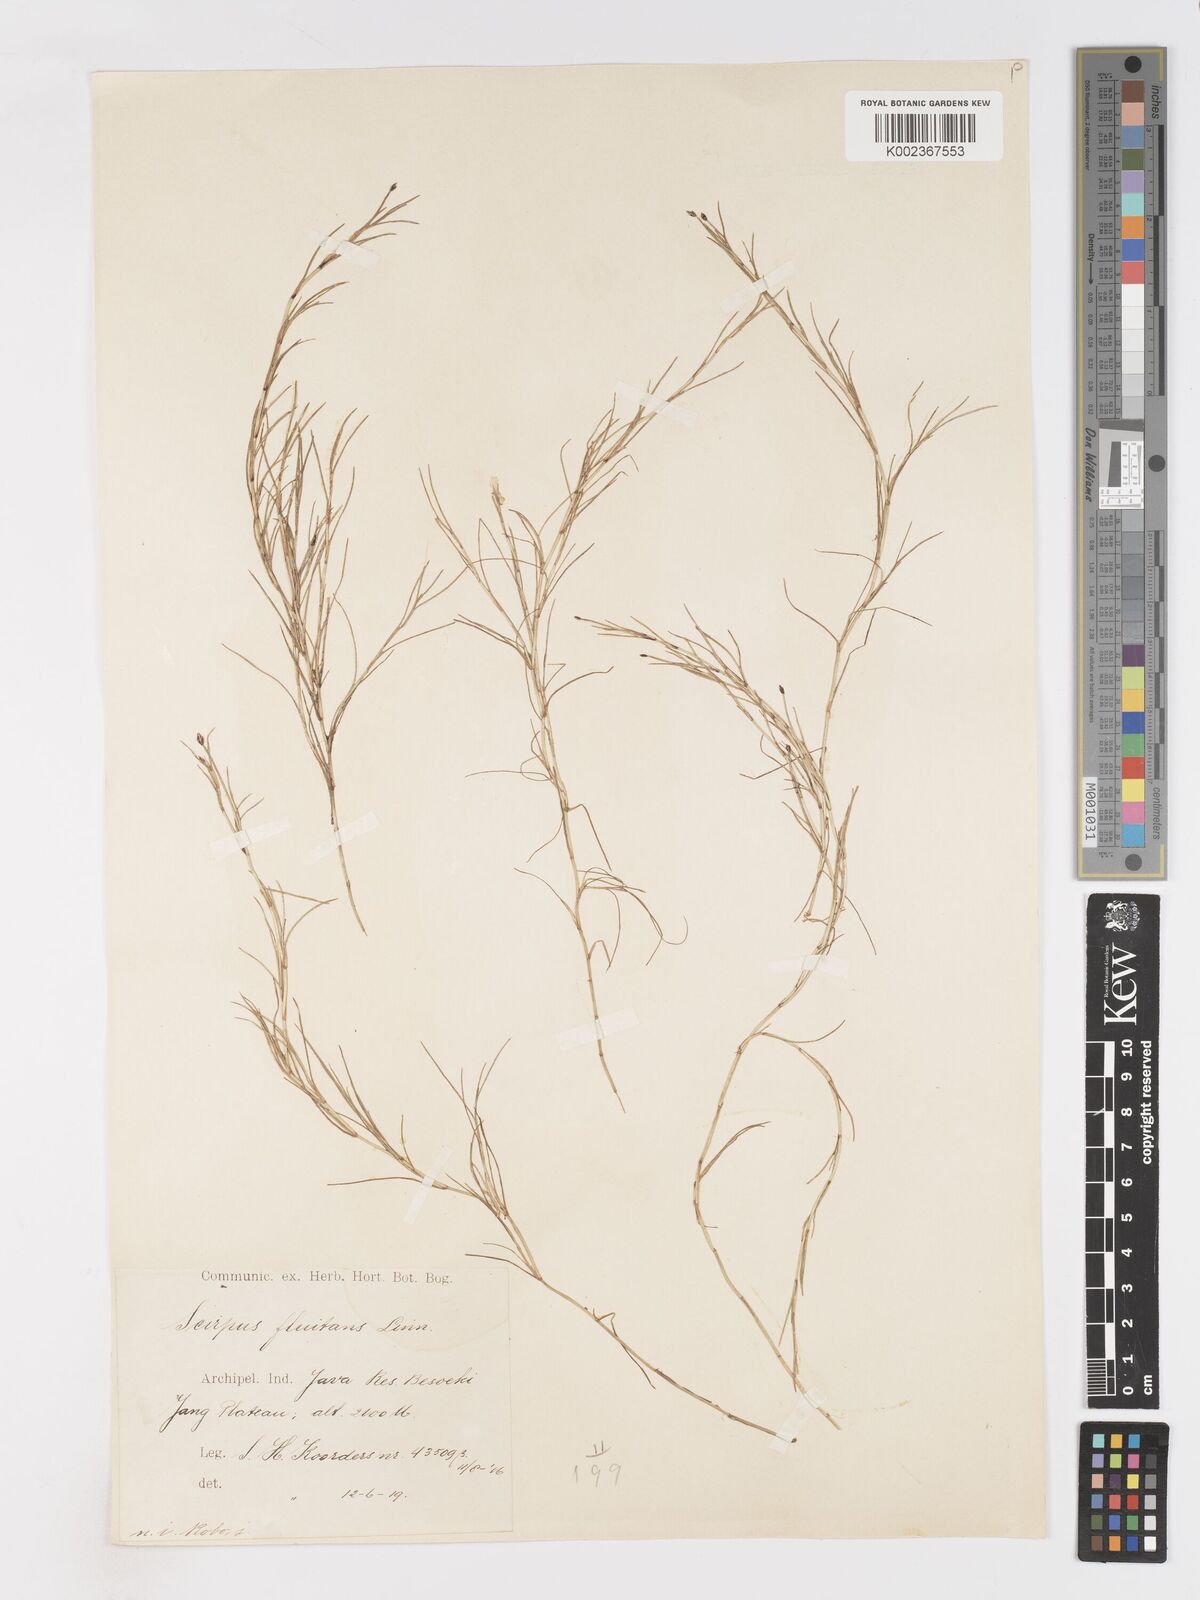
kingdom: Plantae
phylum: Tracheophyta
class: Liliopsida
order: Poales
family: Cyperaceae
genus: Isolepis
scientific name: Isolepis fluitans
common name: Floating club-rush
